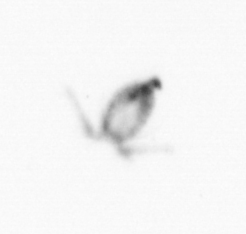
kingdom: Animalia
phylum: Arthropoda
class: Copepoda
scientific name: Copepoda
